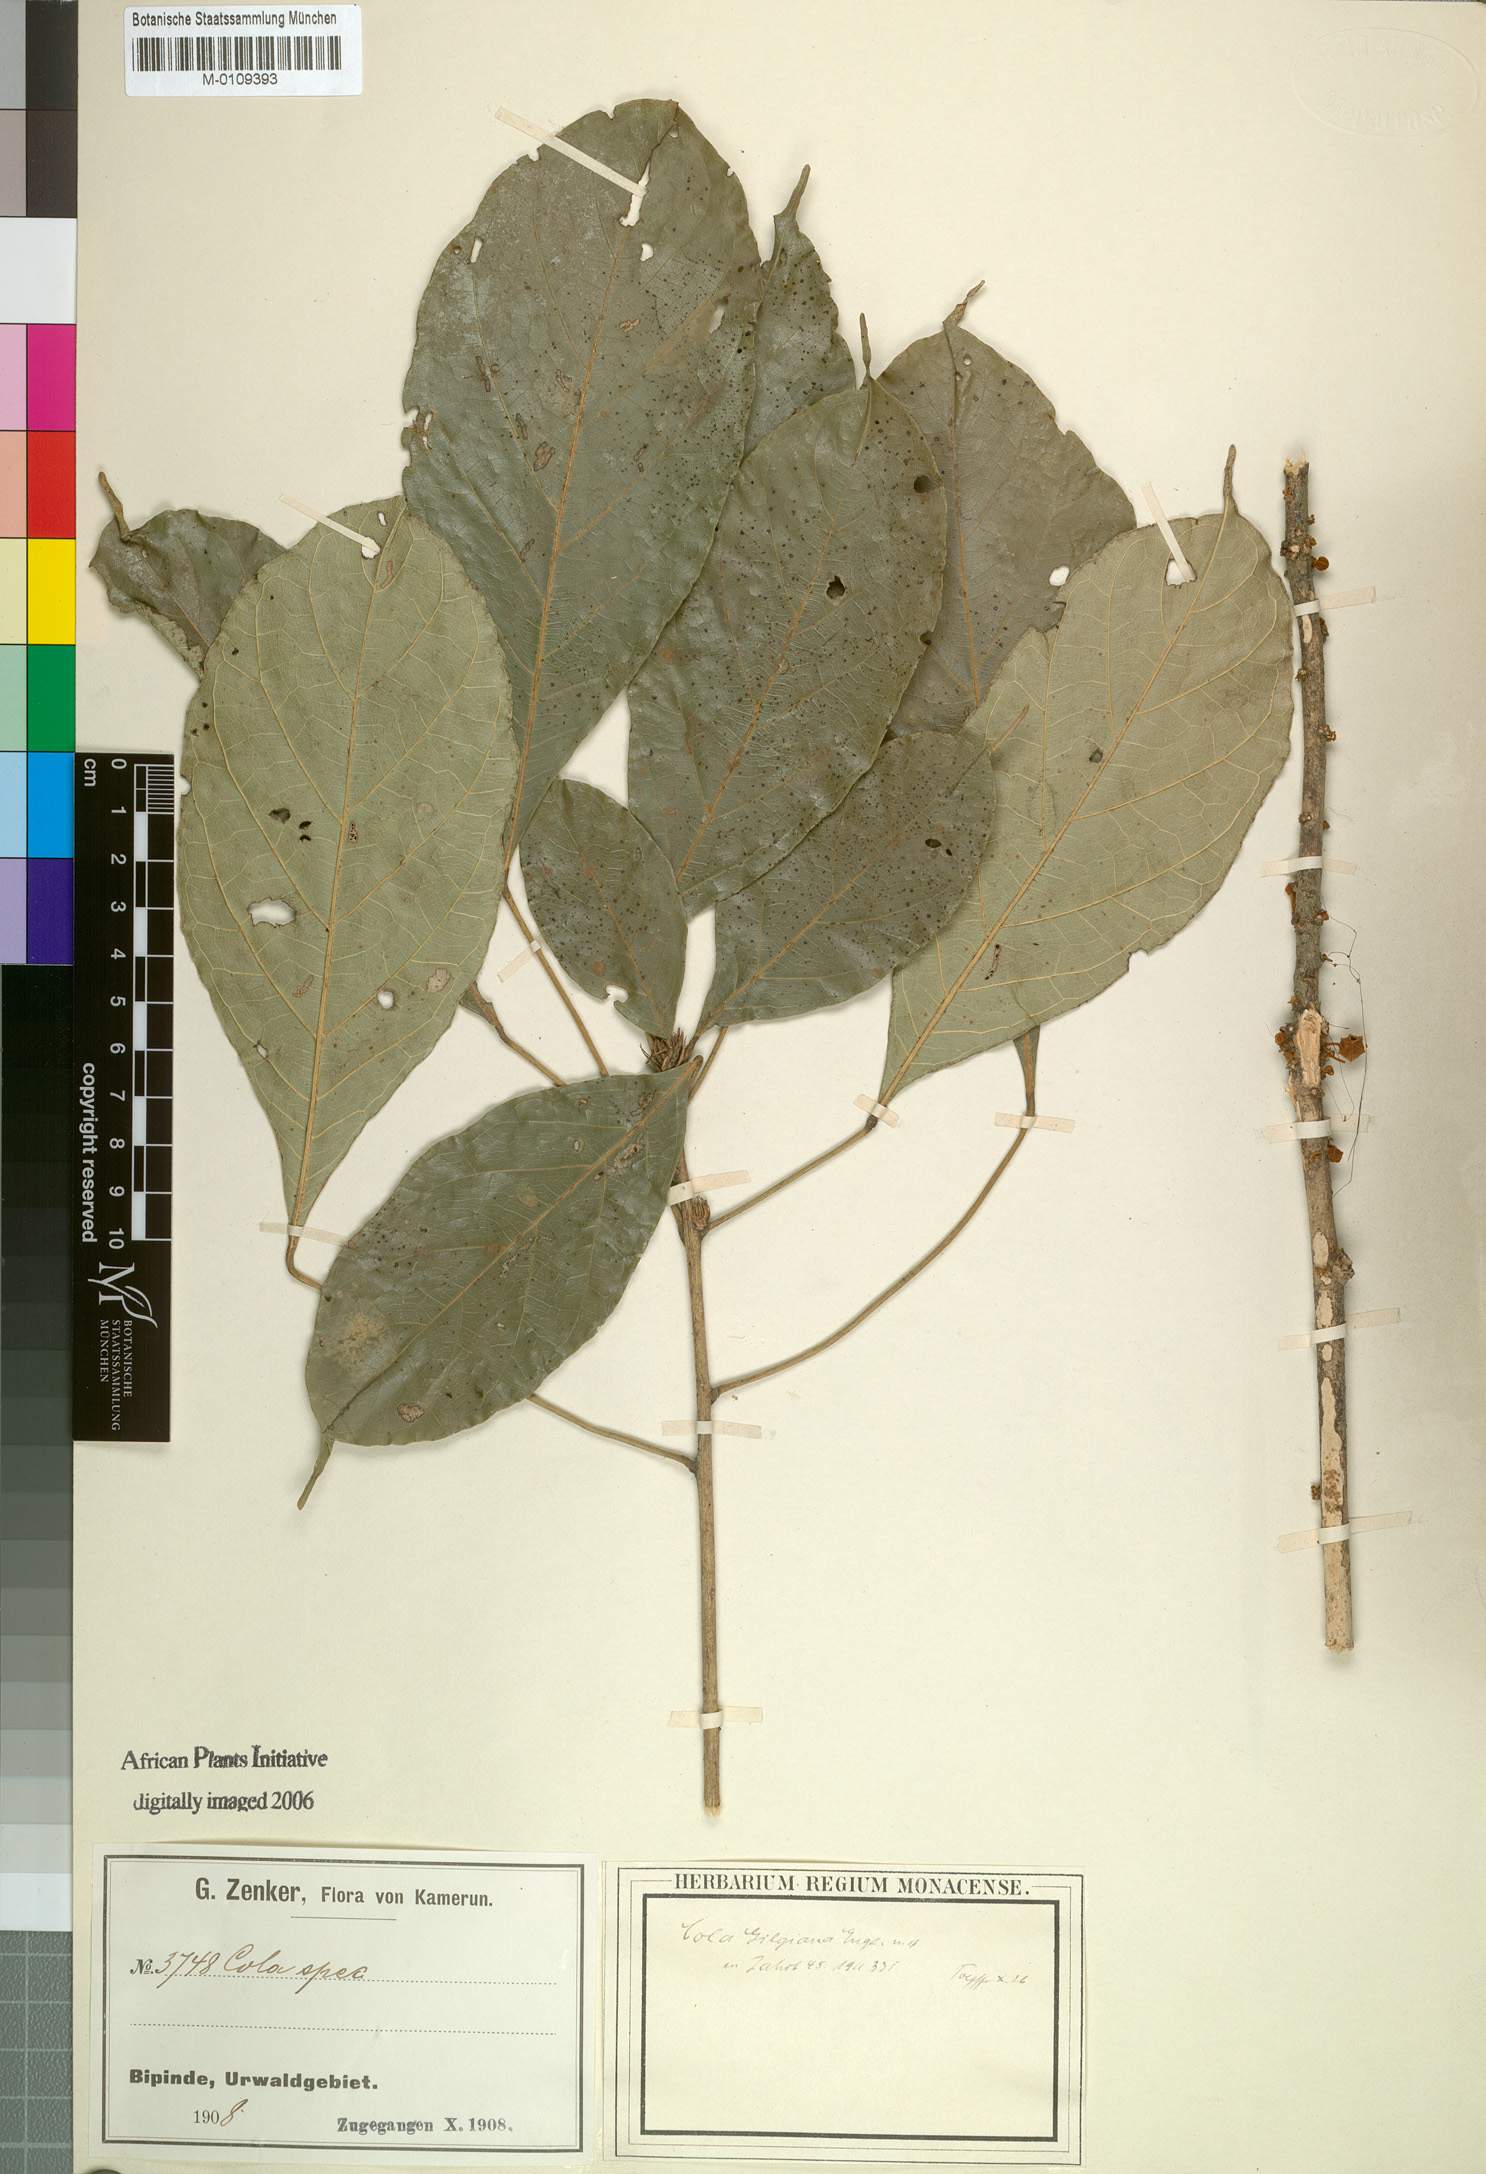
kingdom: Plantae
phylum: Tracheophyta
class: Magnoliopsida
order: Malvales
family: Malvaceae
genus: Cola
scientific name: Cola flavovelutina
